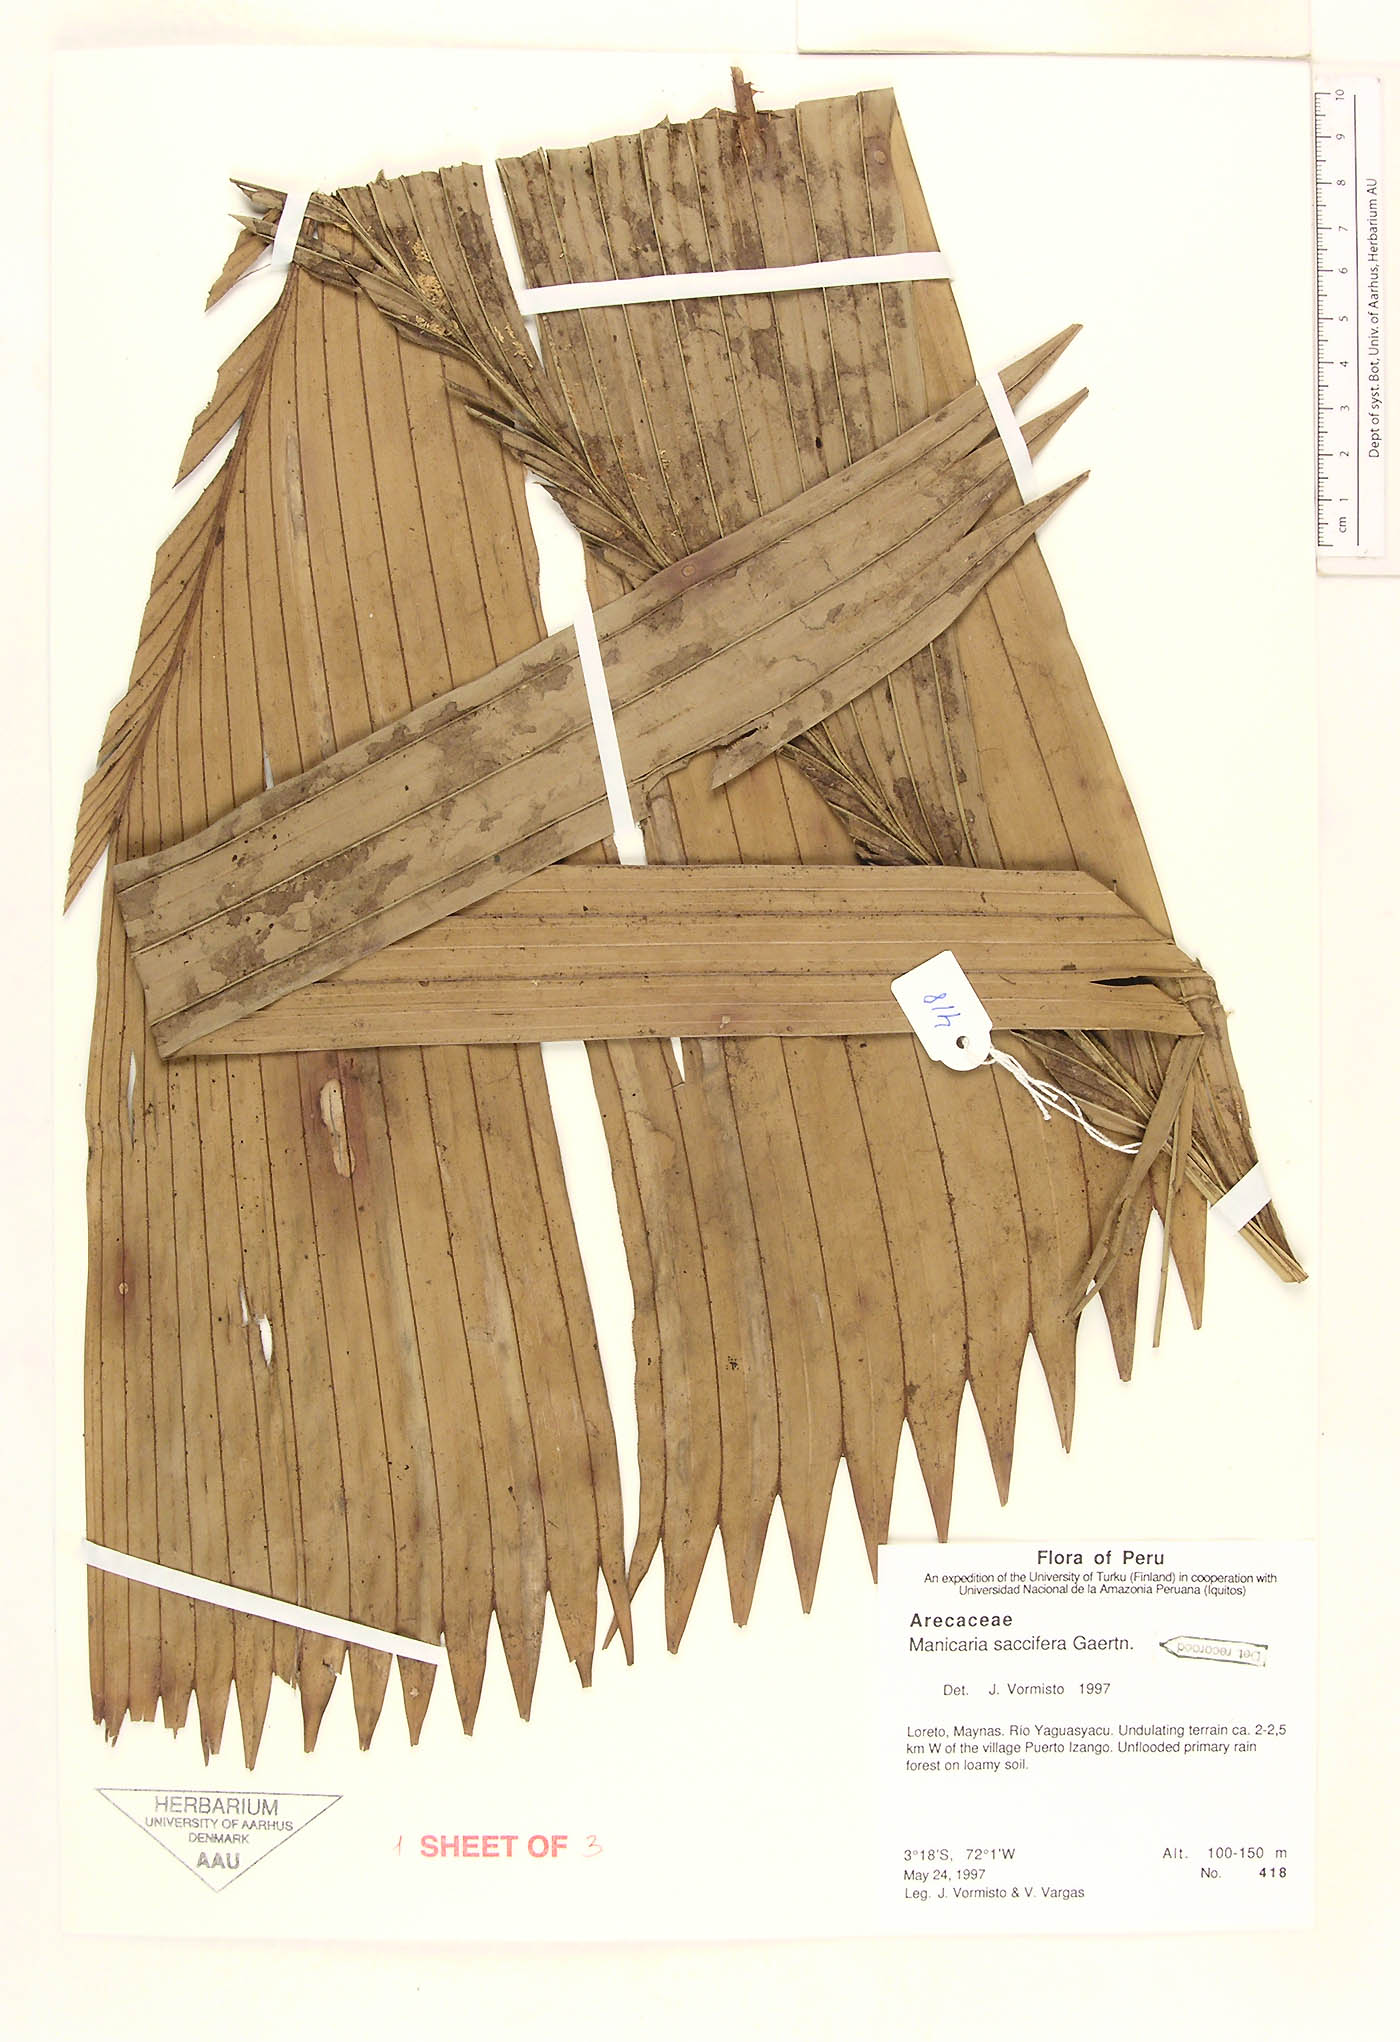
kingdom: Plantae
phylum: Tracheophyta
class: Liliopsida
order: Arecales
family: Arecaceae
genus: Manicaria
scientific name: Manicaria saccifera
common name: Sea coconut
